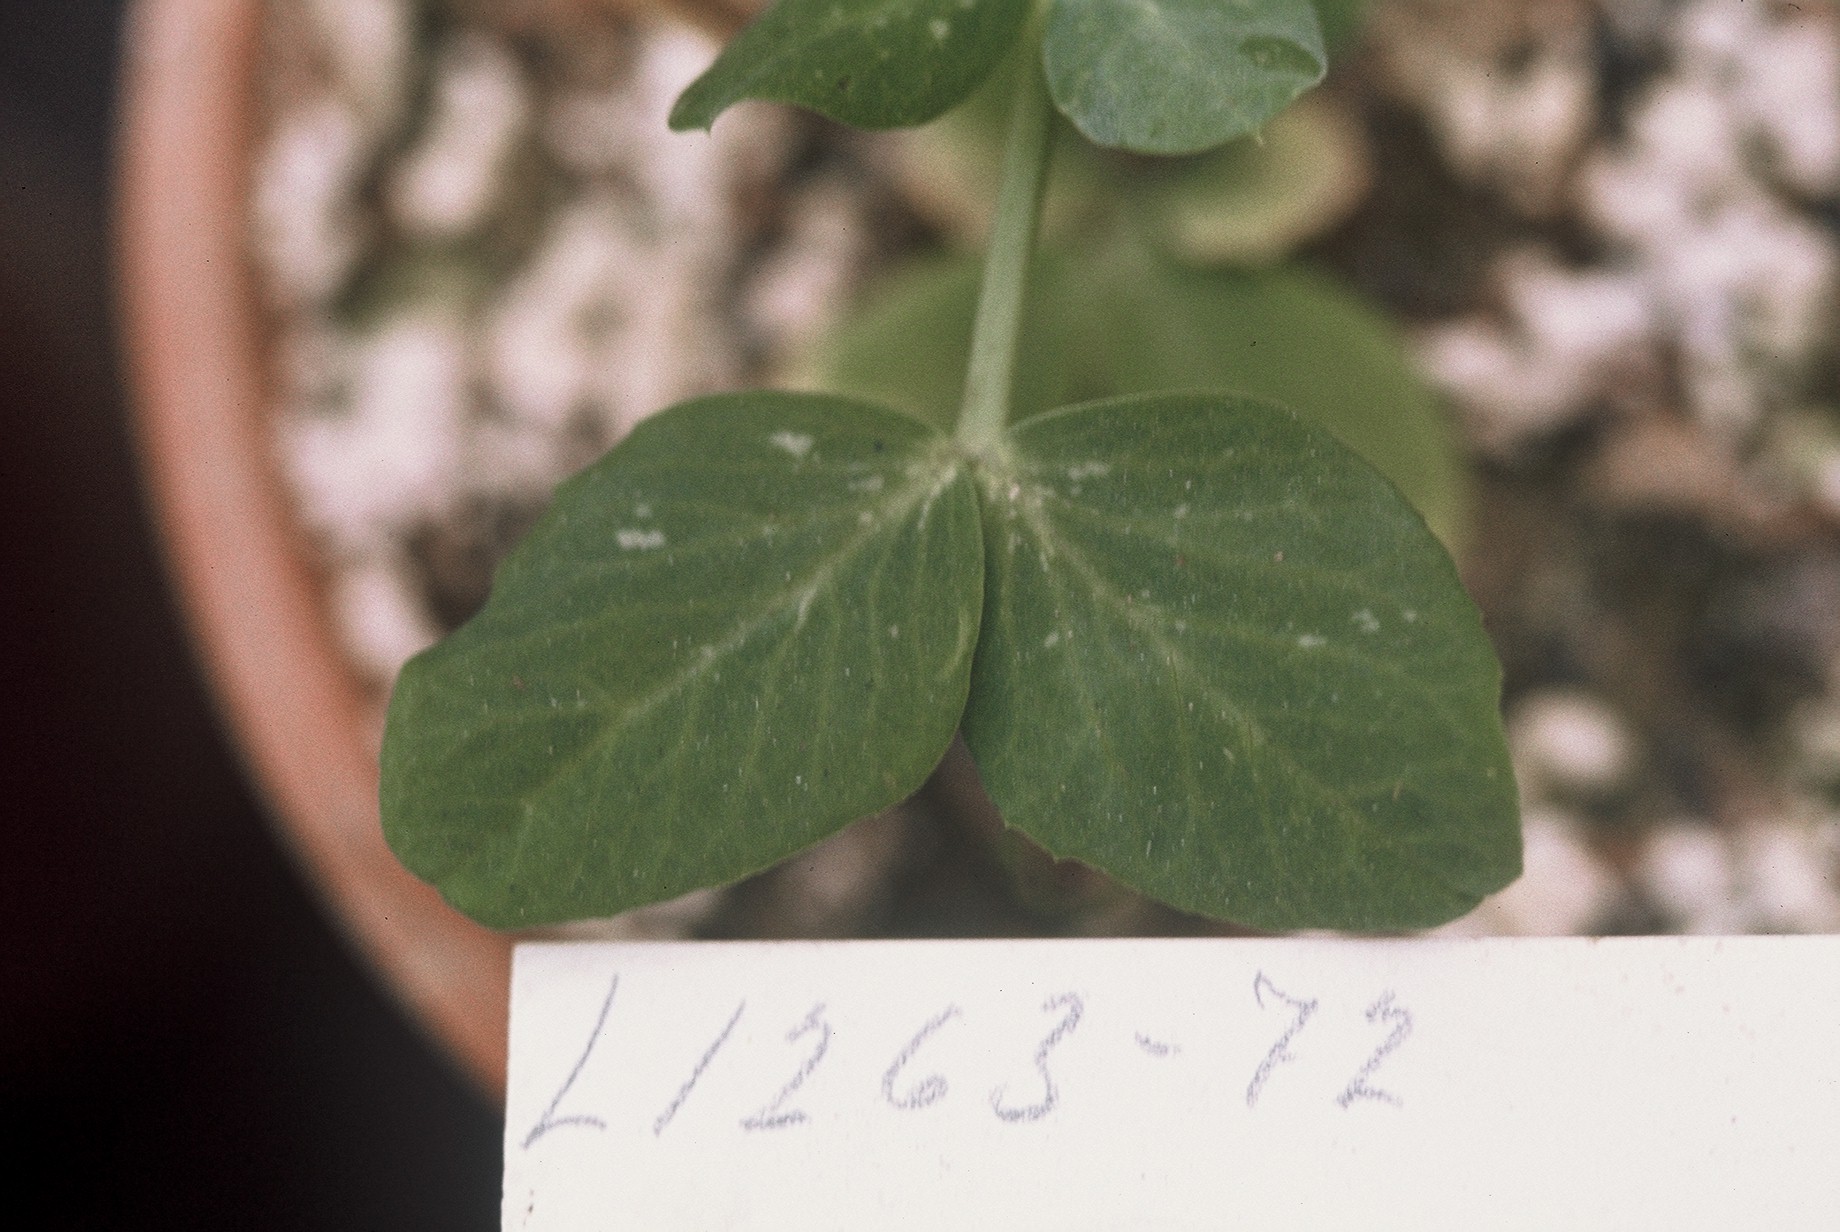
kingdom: Plantae
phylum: Tracheophyta
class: Magnoliopsida
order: Fabales
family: Fabaceae
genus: Lathyrus
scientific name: Lathyrus oleraceus
